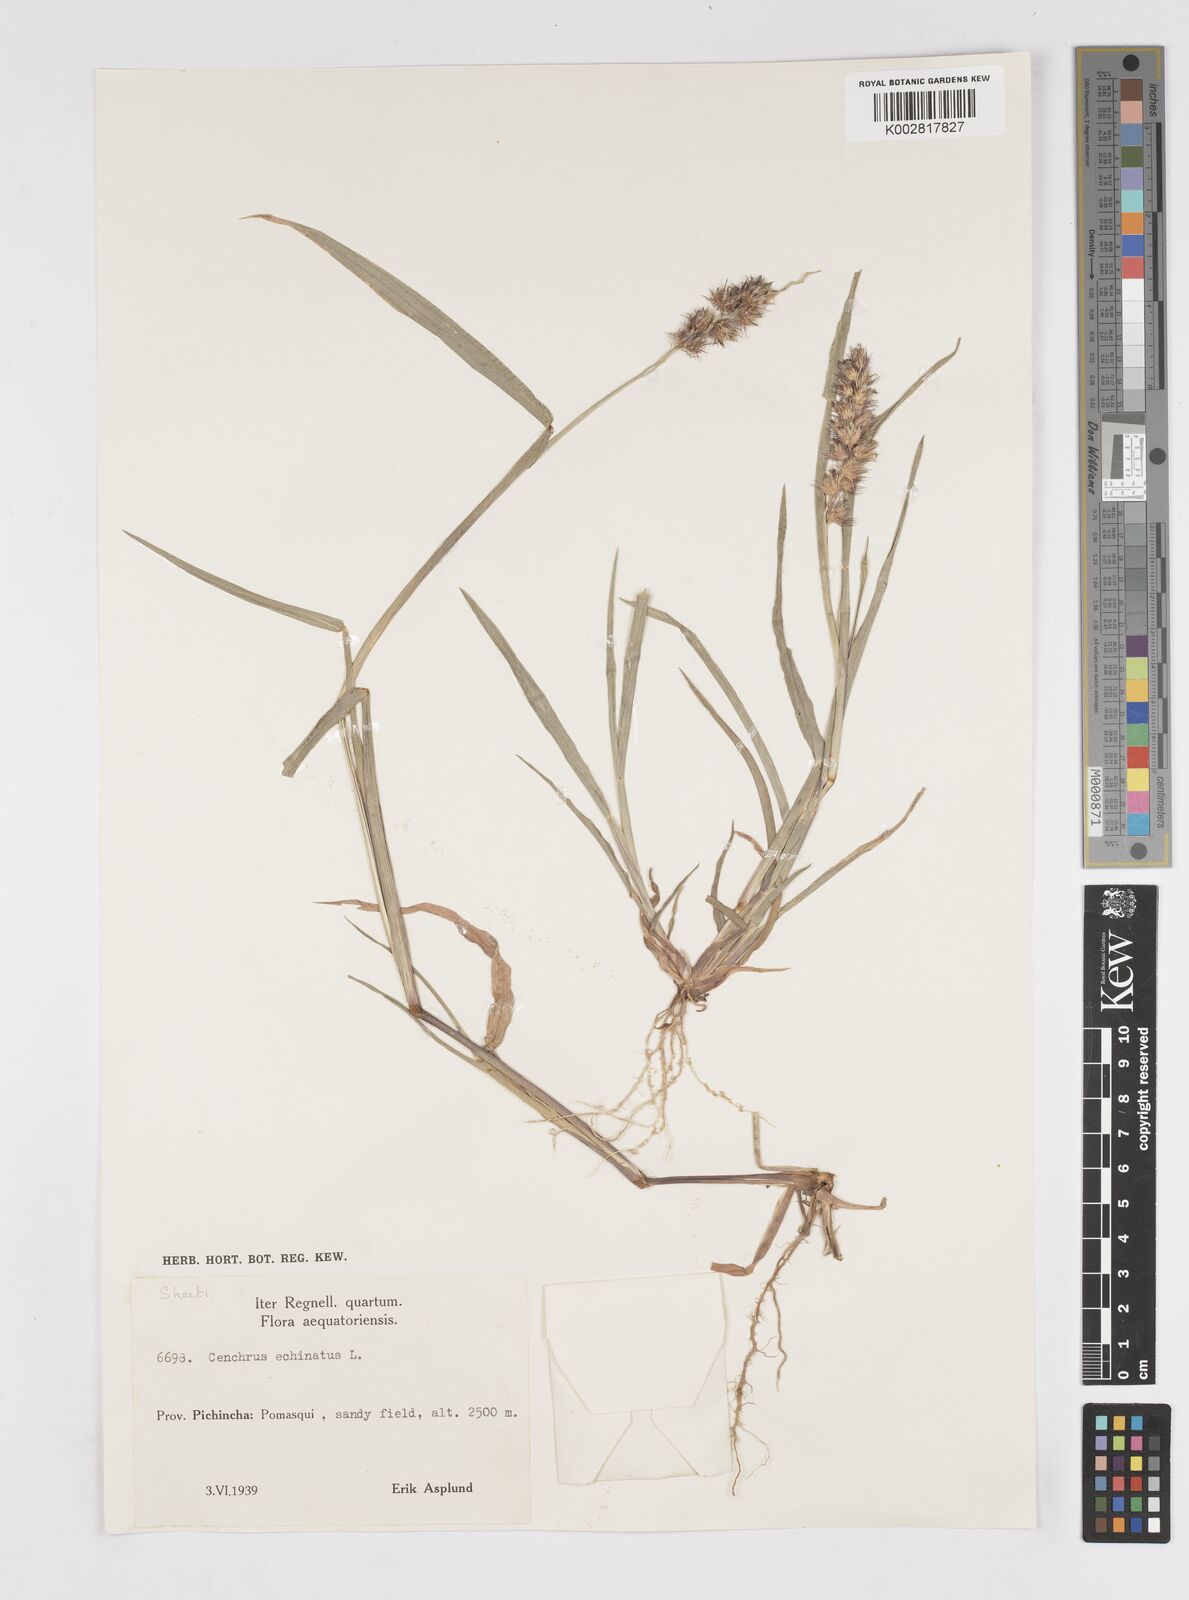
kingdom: Plantae
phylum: Tracheophyta
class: Liliopsida
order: Poales
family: Poaceae
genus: Cenchrus
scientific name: Cenchrus
